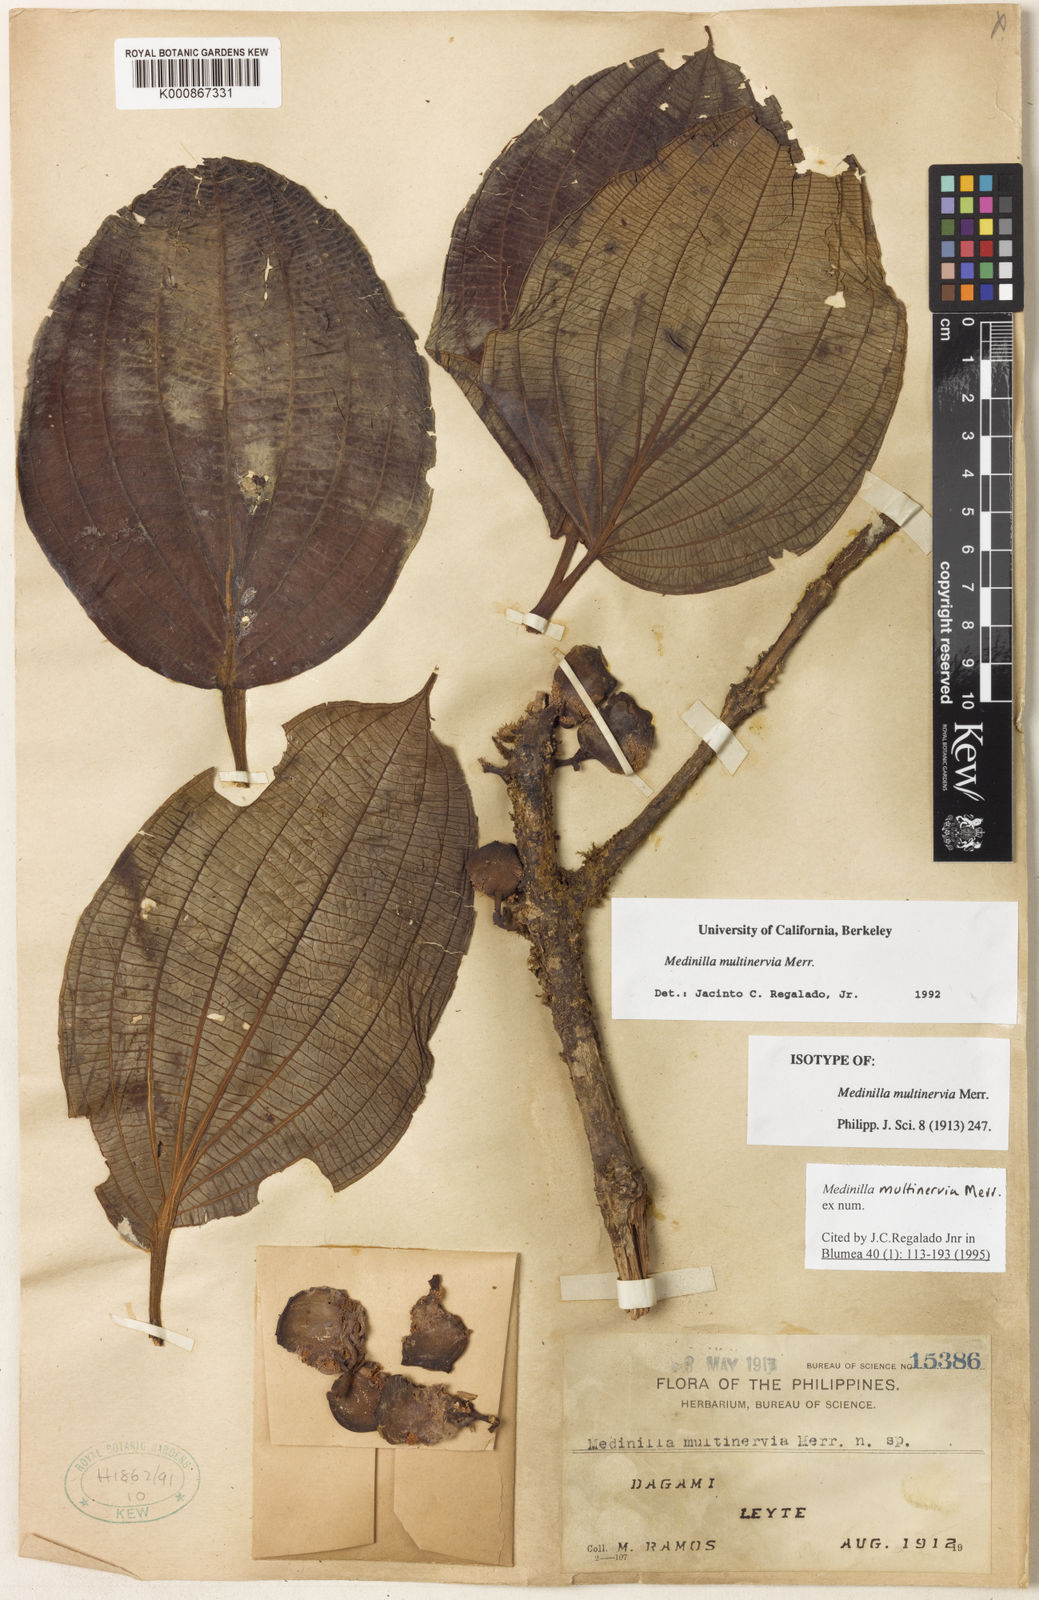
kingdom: Plantae
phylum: Tracheophyta
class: Magnoliopsida
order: Myrtales
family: Melastomataceae
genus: Medinilla
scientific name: Medinilla multinervia
